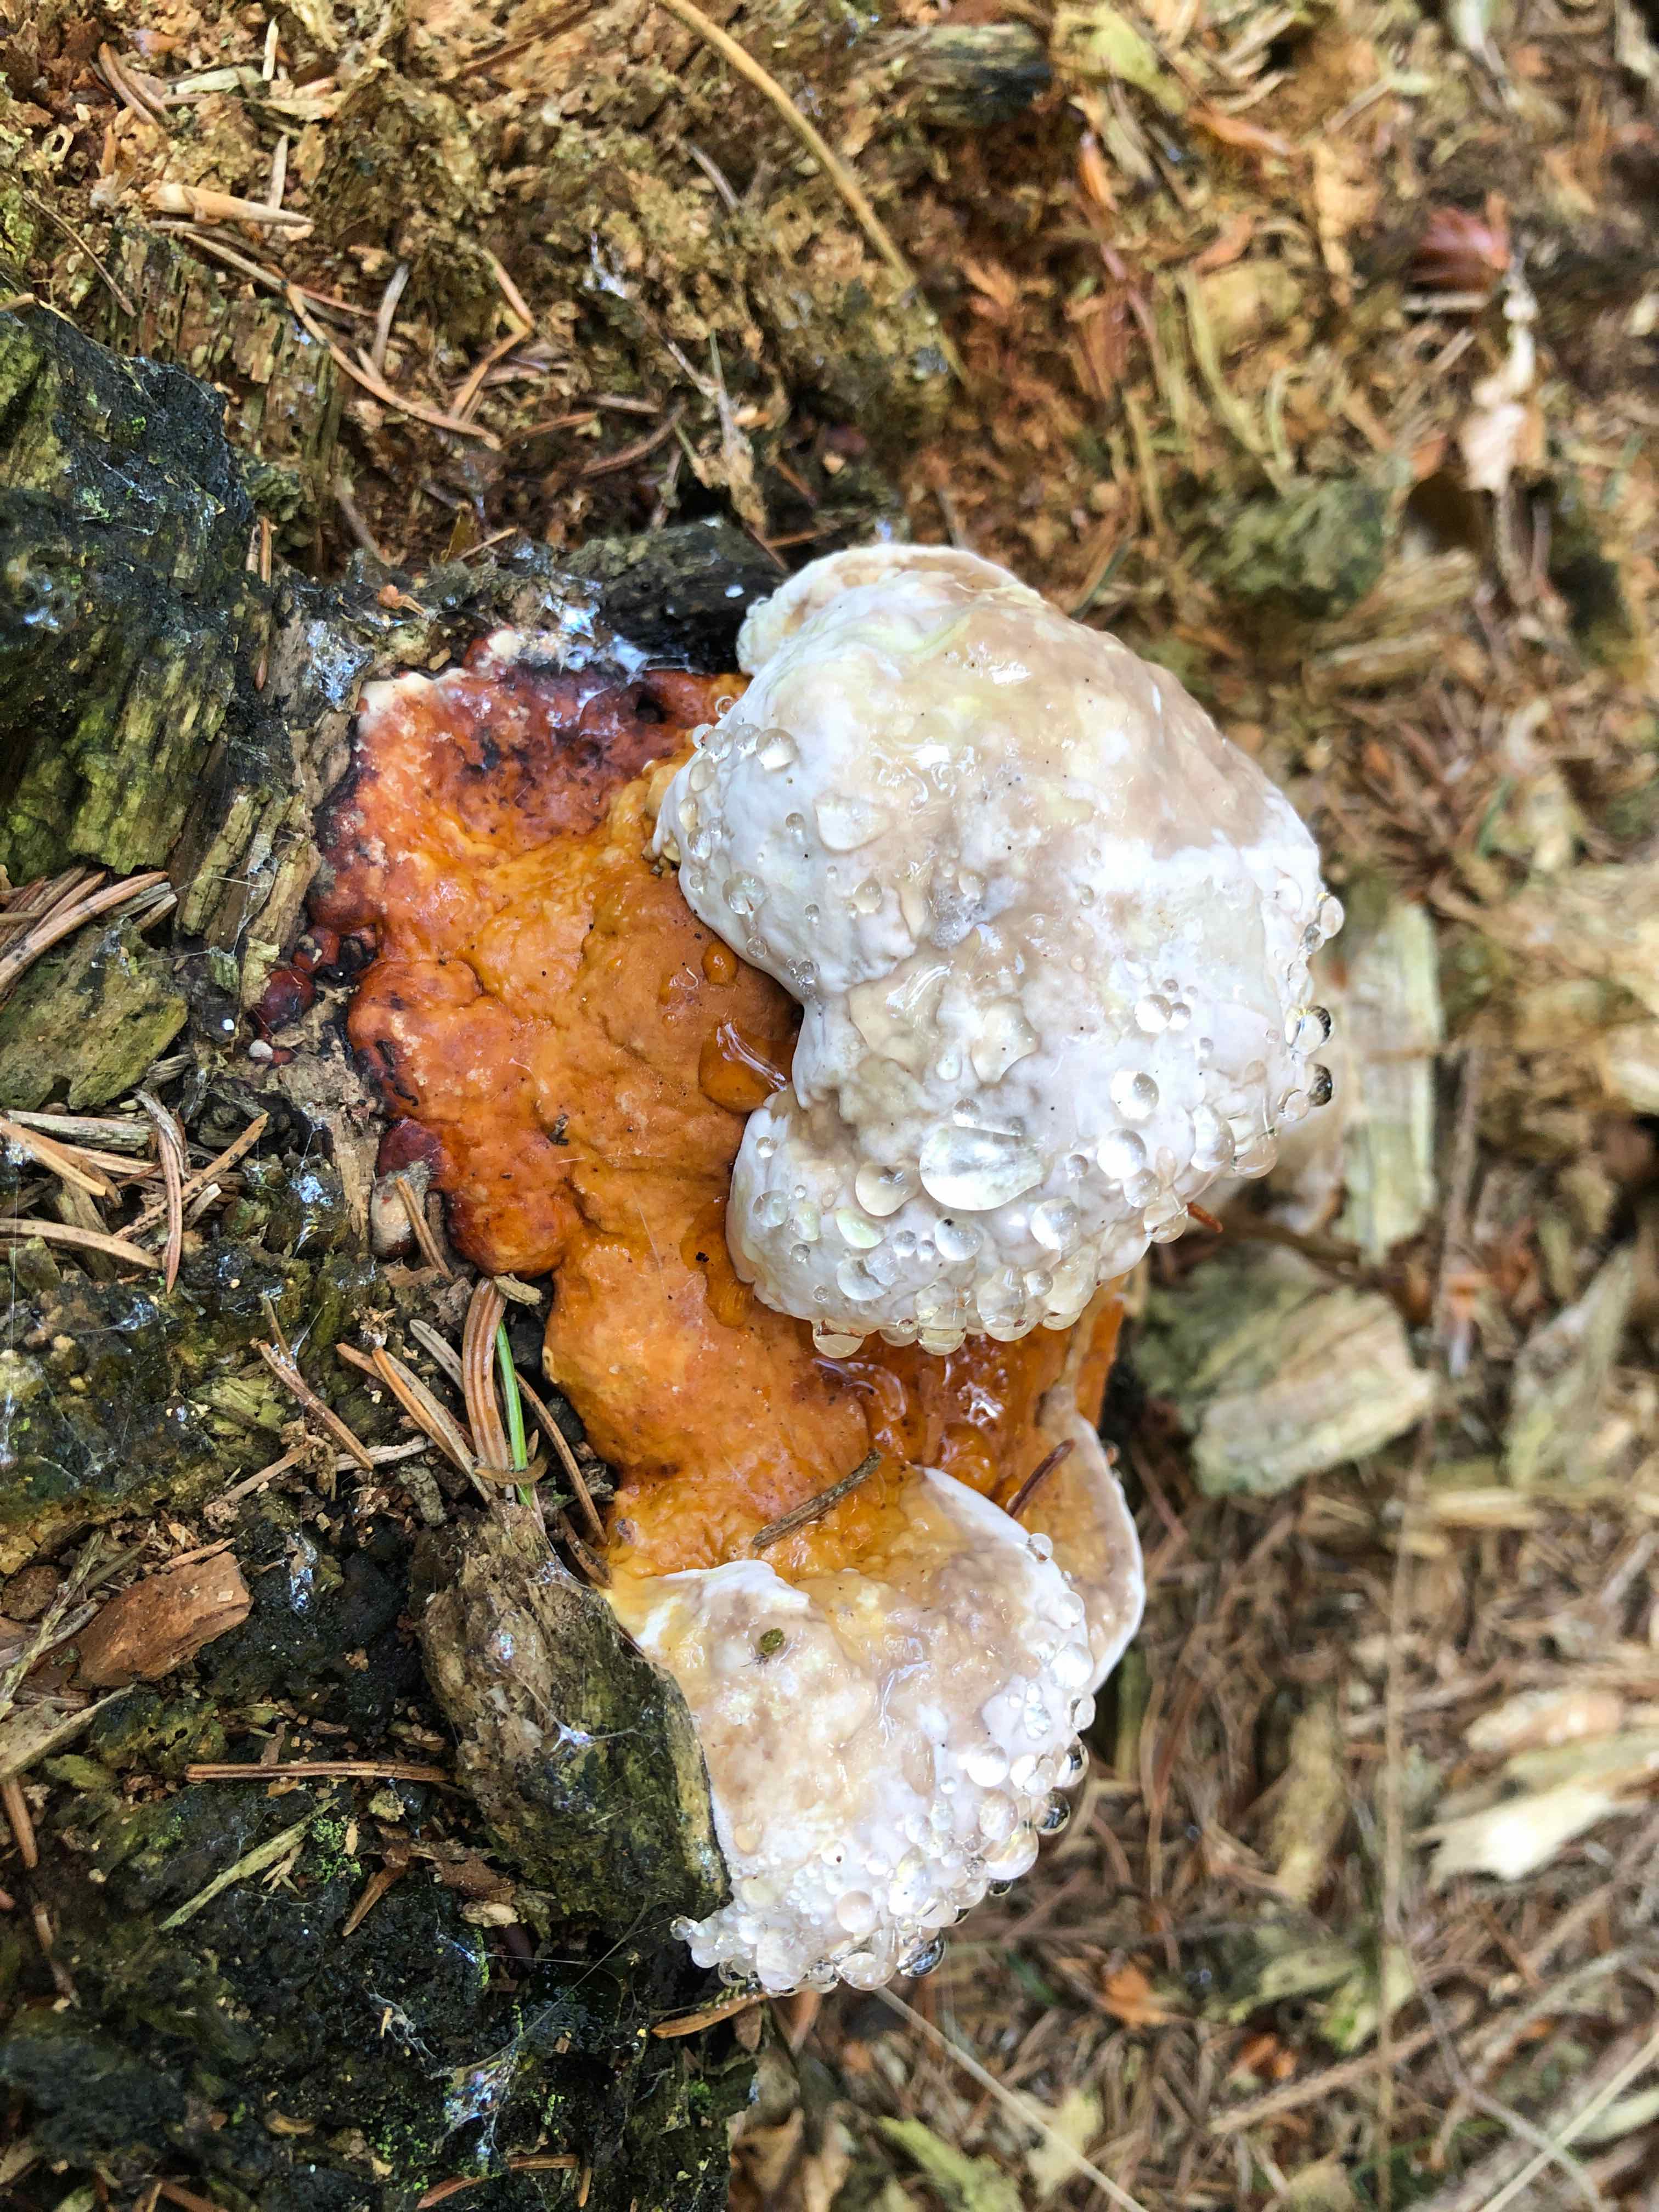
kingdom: Fungi
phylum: Basidiomycota
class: Agaricomycetes
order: Polyporales
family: Fomitopsidaceae
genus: Fomitopsis
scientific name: Fomitopsis pinicola
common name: randbæltet hovporesvamp
